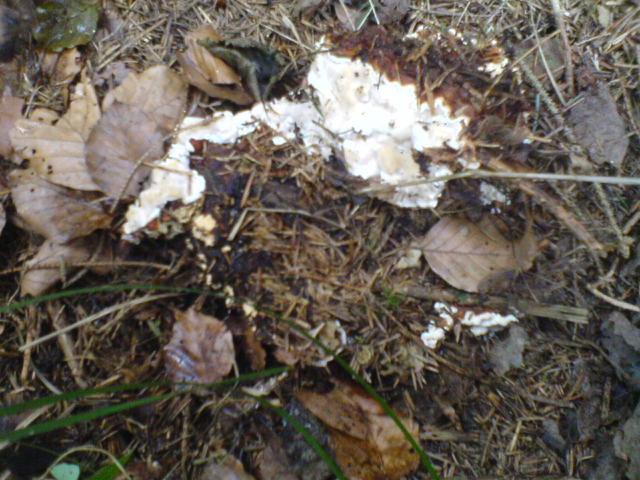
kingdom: Fungi
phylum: Basidiomycota
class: Agaricomycetes
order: Russulales
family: Bondarzewiaceae
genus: Heterobasidion
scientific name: Heterobasidion
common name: rodfordærver
